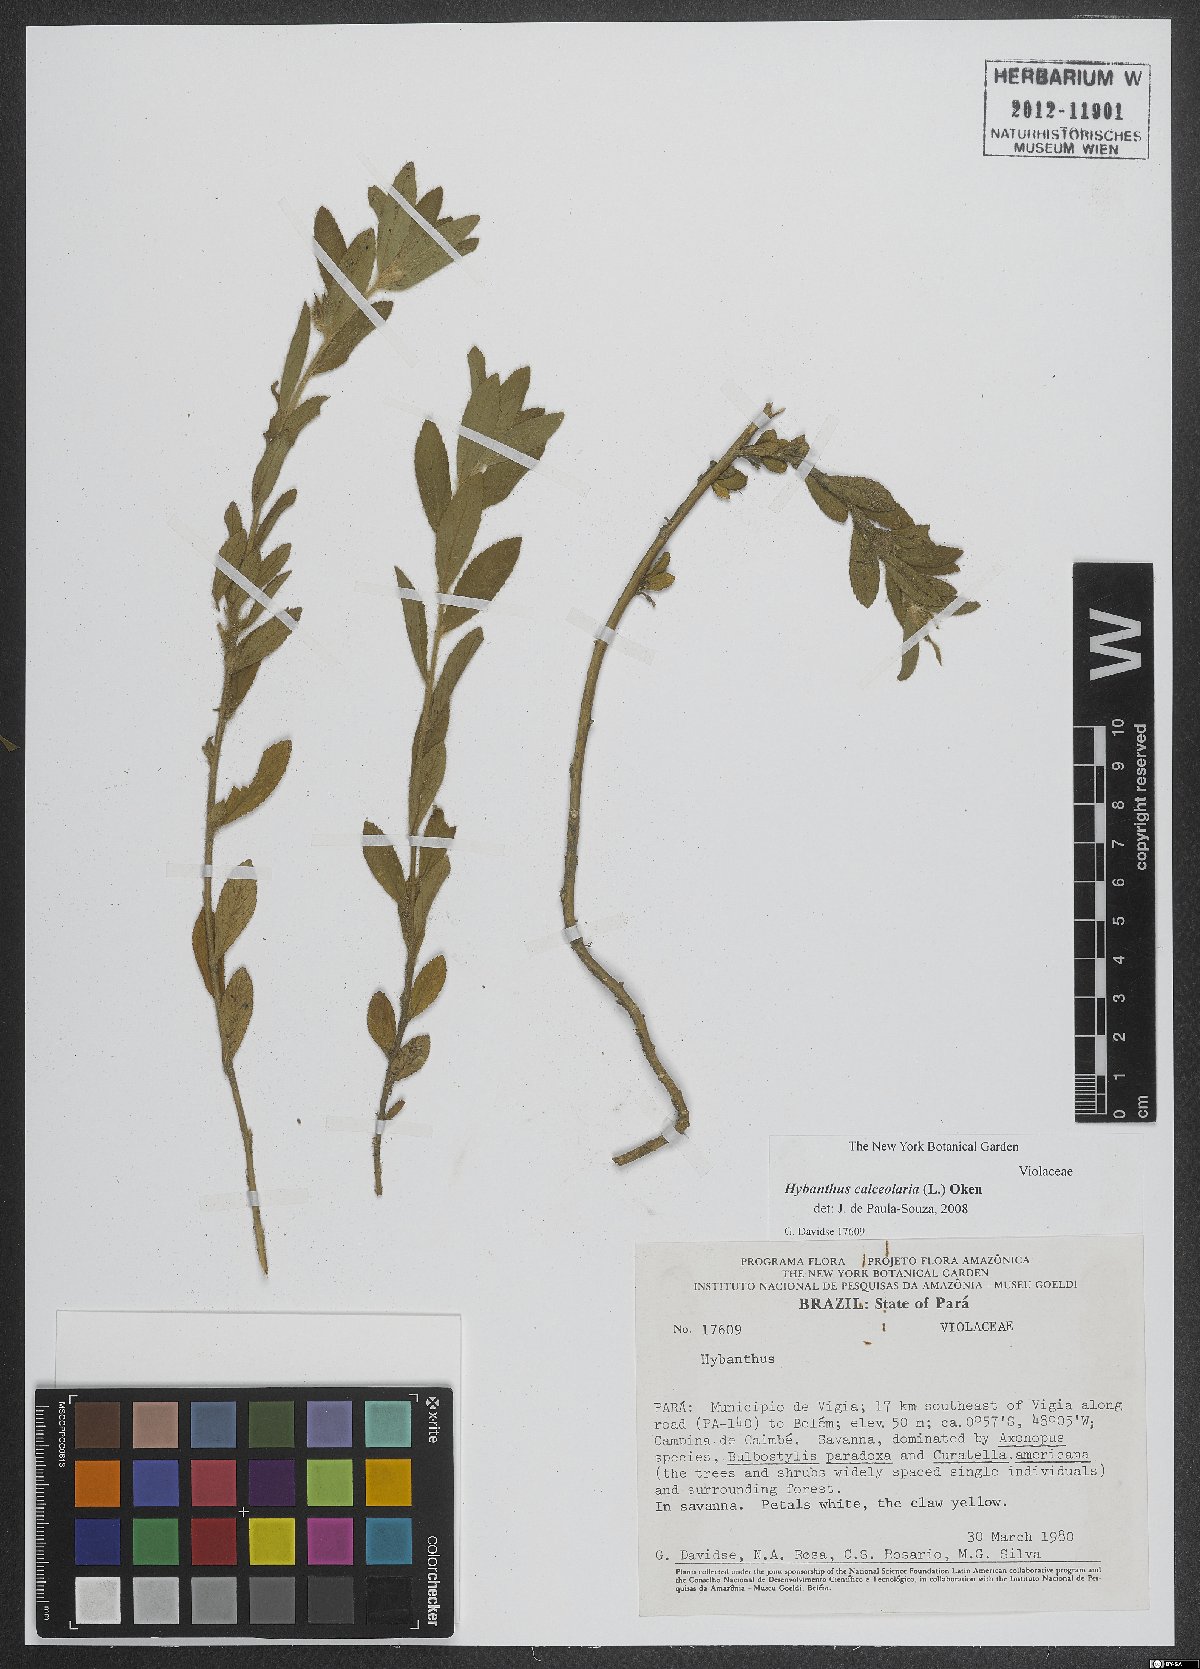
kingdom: Plantae
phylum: Tracheophyta
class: Magnoliopsida
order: Malpighiales
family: Violaceae
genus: Pombalia
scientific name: Pombalia calceolaria
